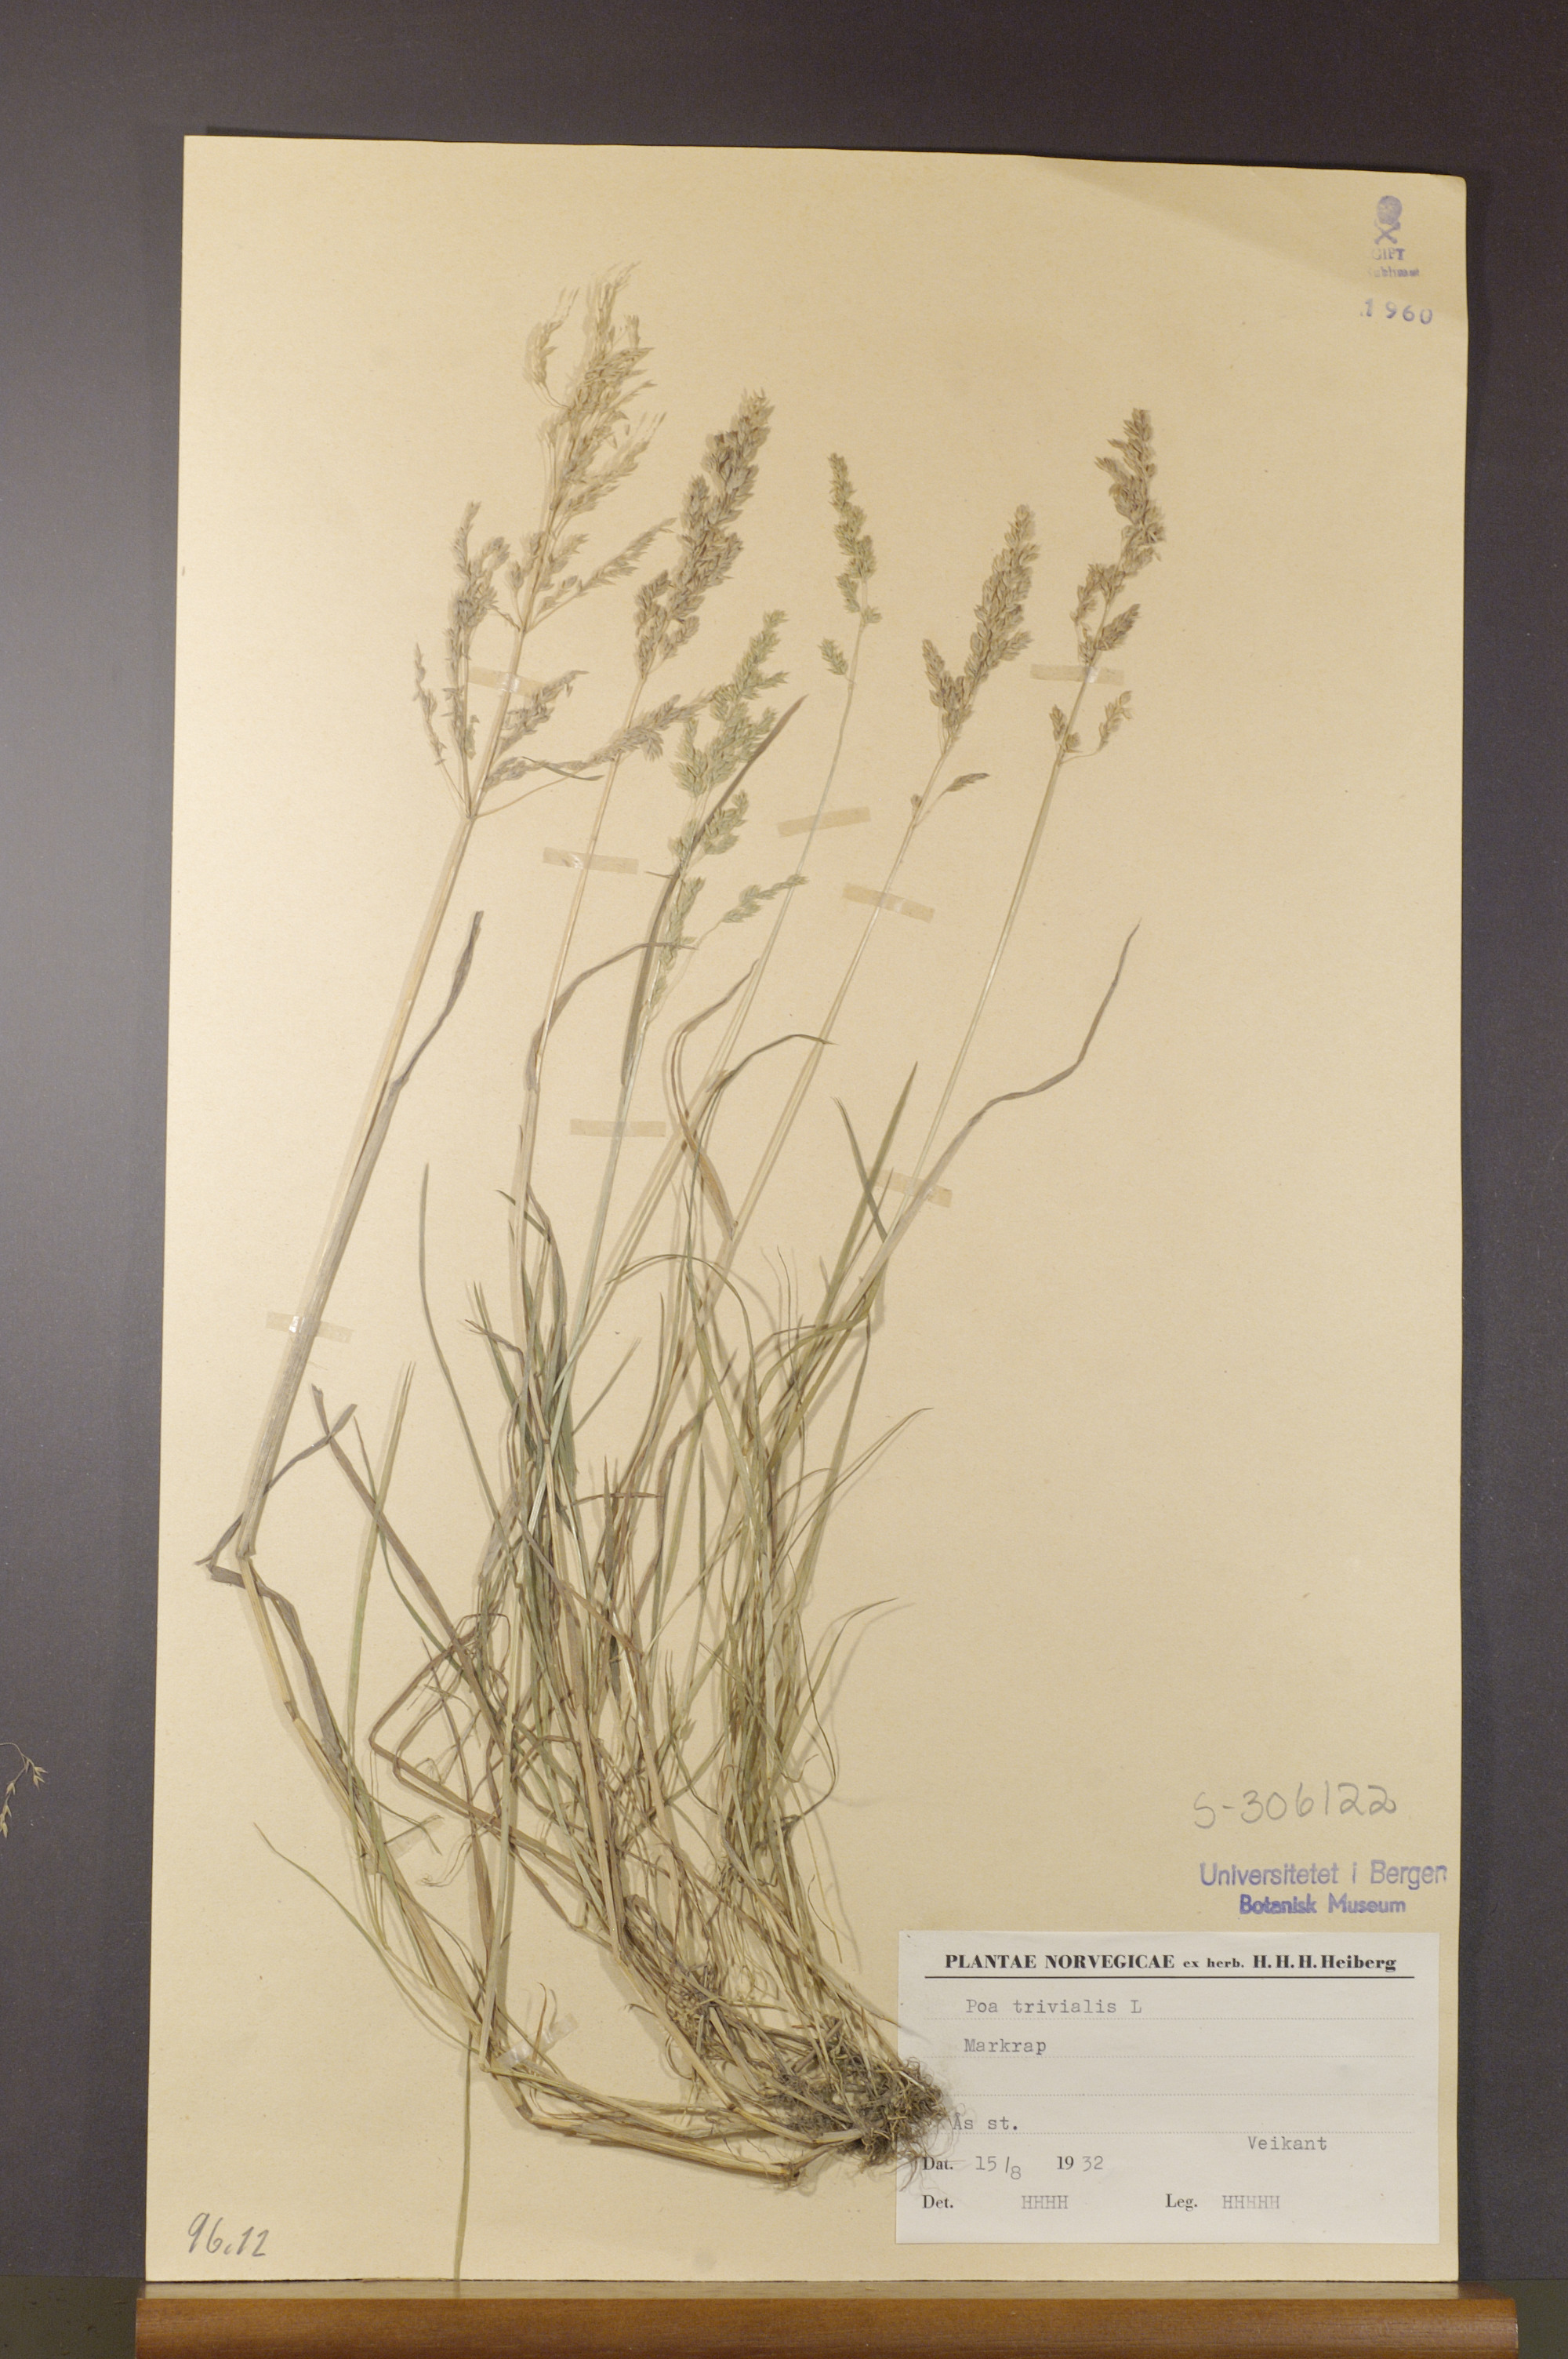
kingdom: Plantae
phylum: Tracheophyta
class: Liliopsida
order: Poales
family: Poaceae
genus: Poa
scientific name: Poa trivialis
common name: Rough bluegrass
